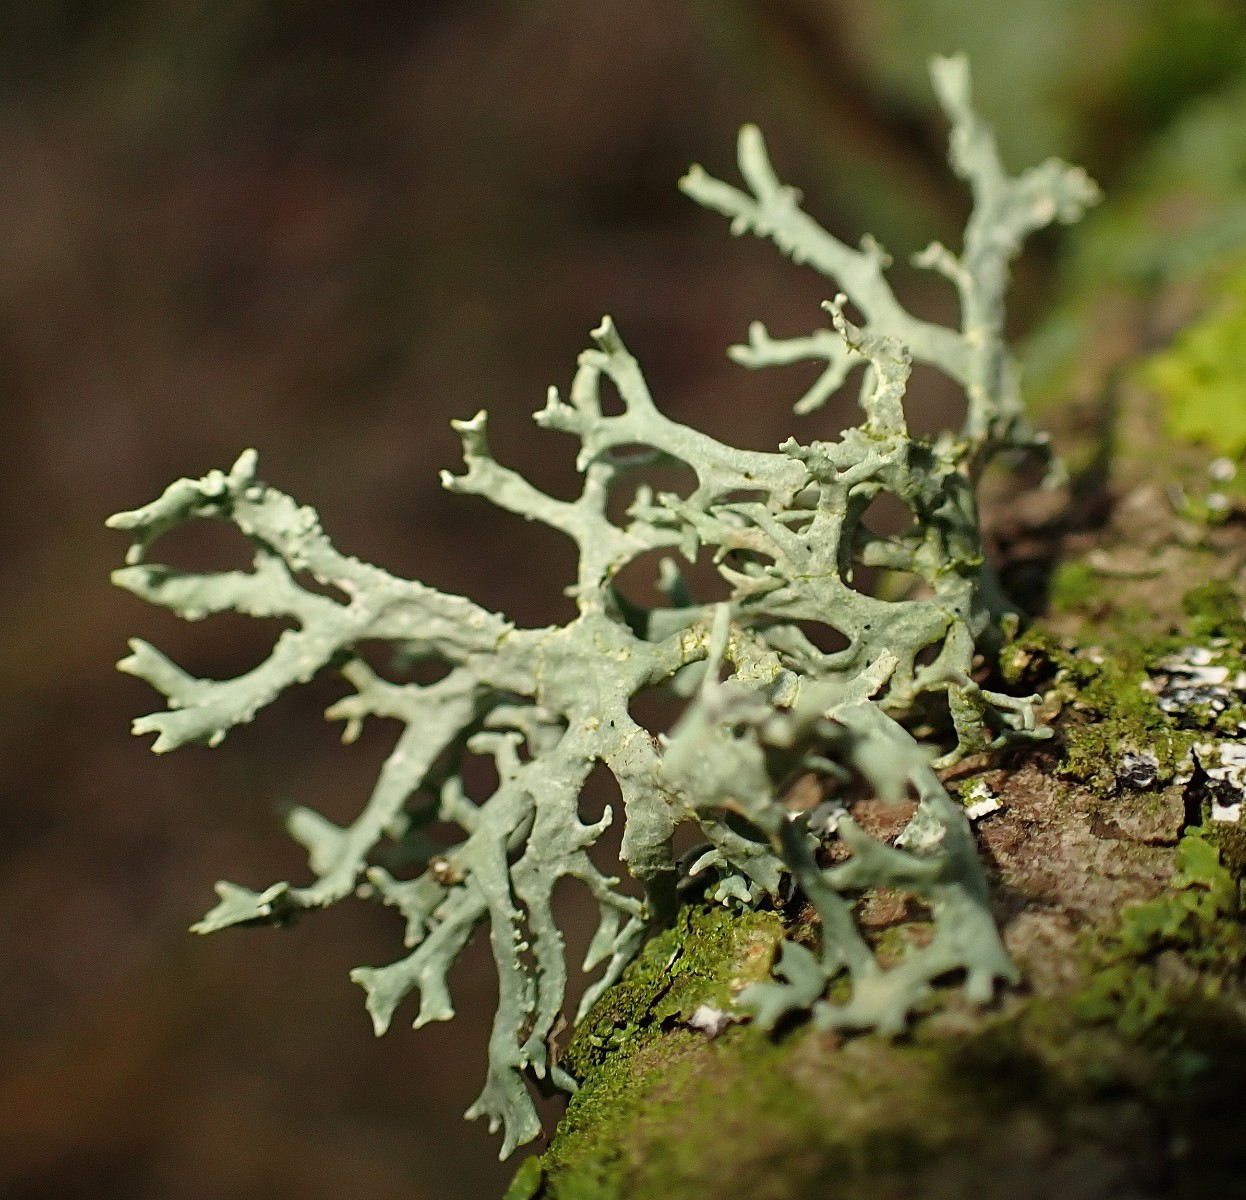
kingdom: Fungi
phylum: Ascomycota
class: Lecanoromycetes
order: Lecanorales
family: Parmeliaceae
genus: Evernia
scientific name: Evernia prunastri
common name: almindelig slåenlav
